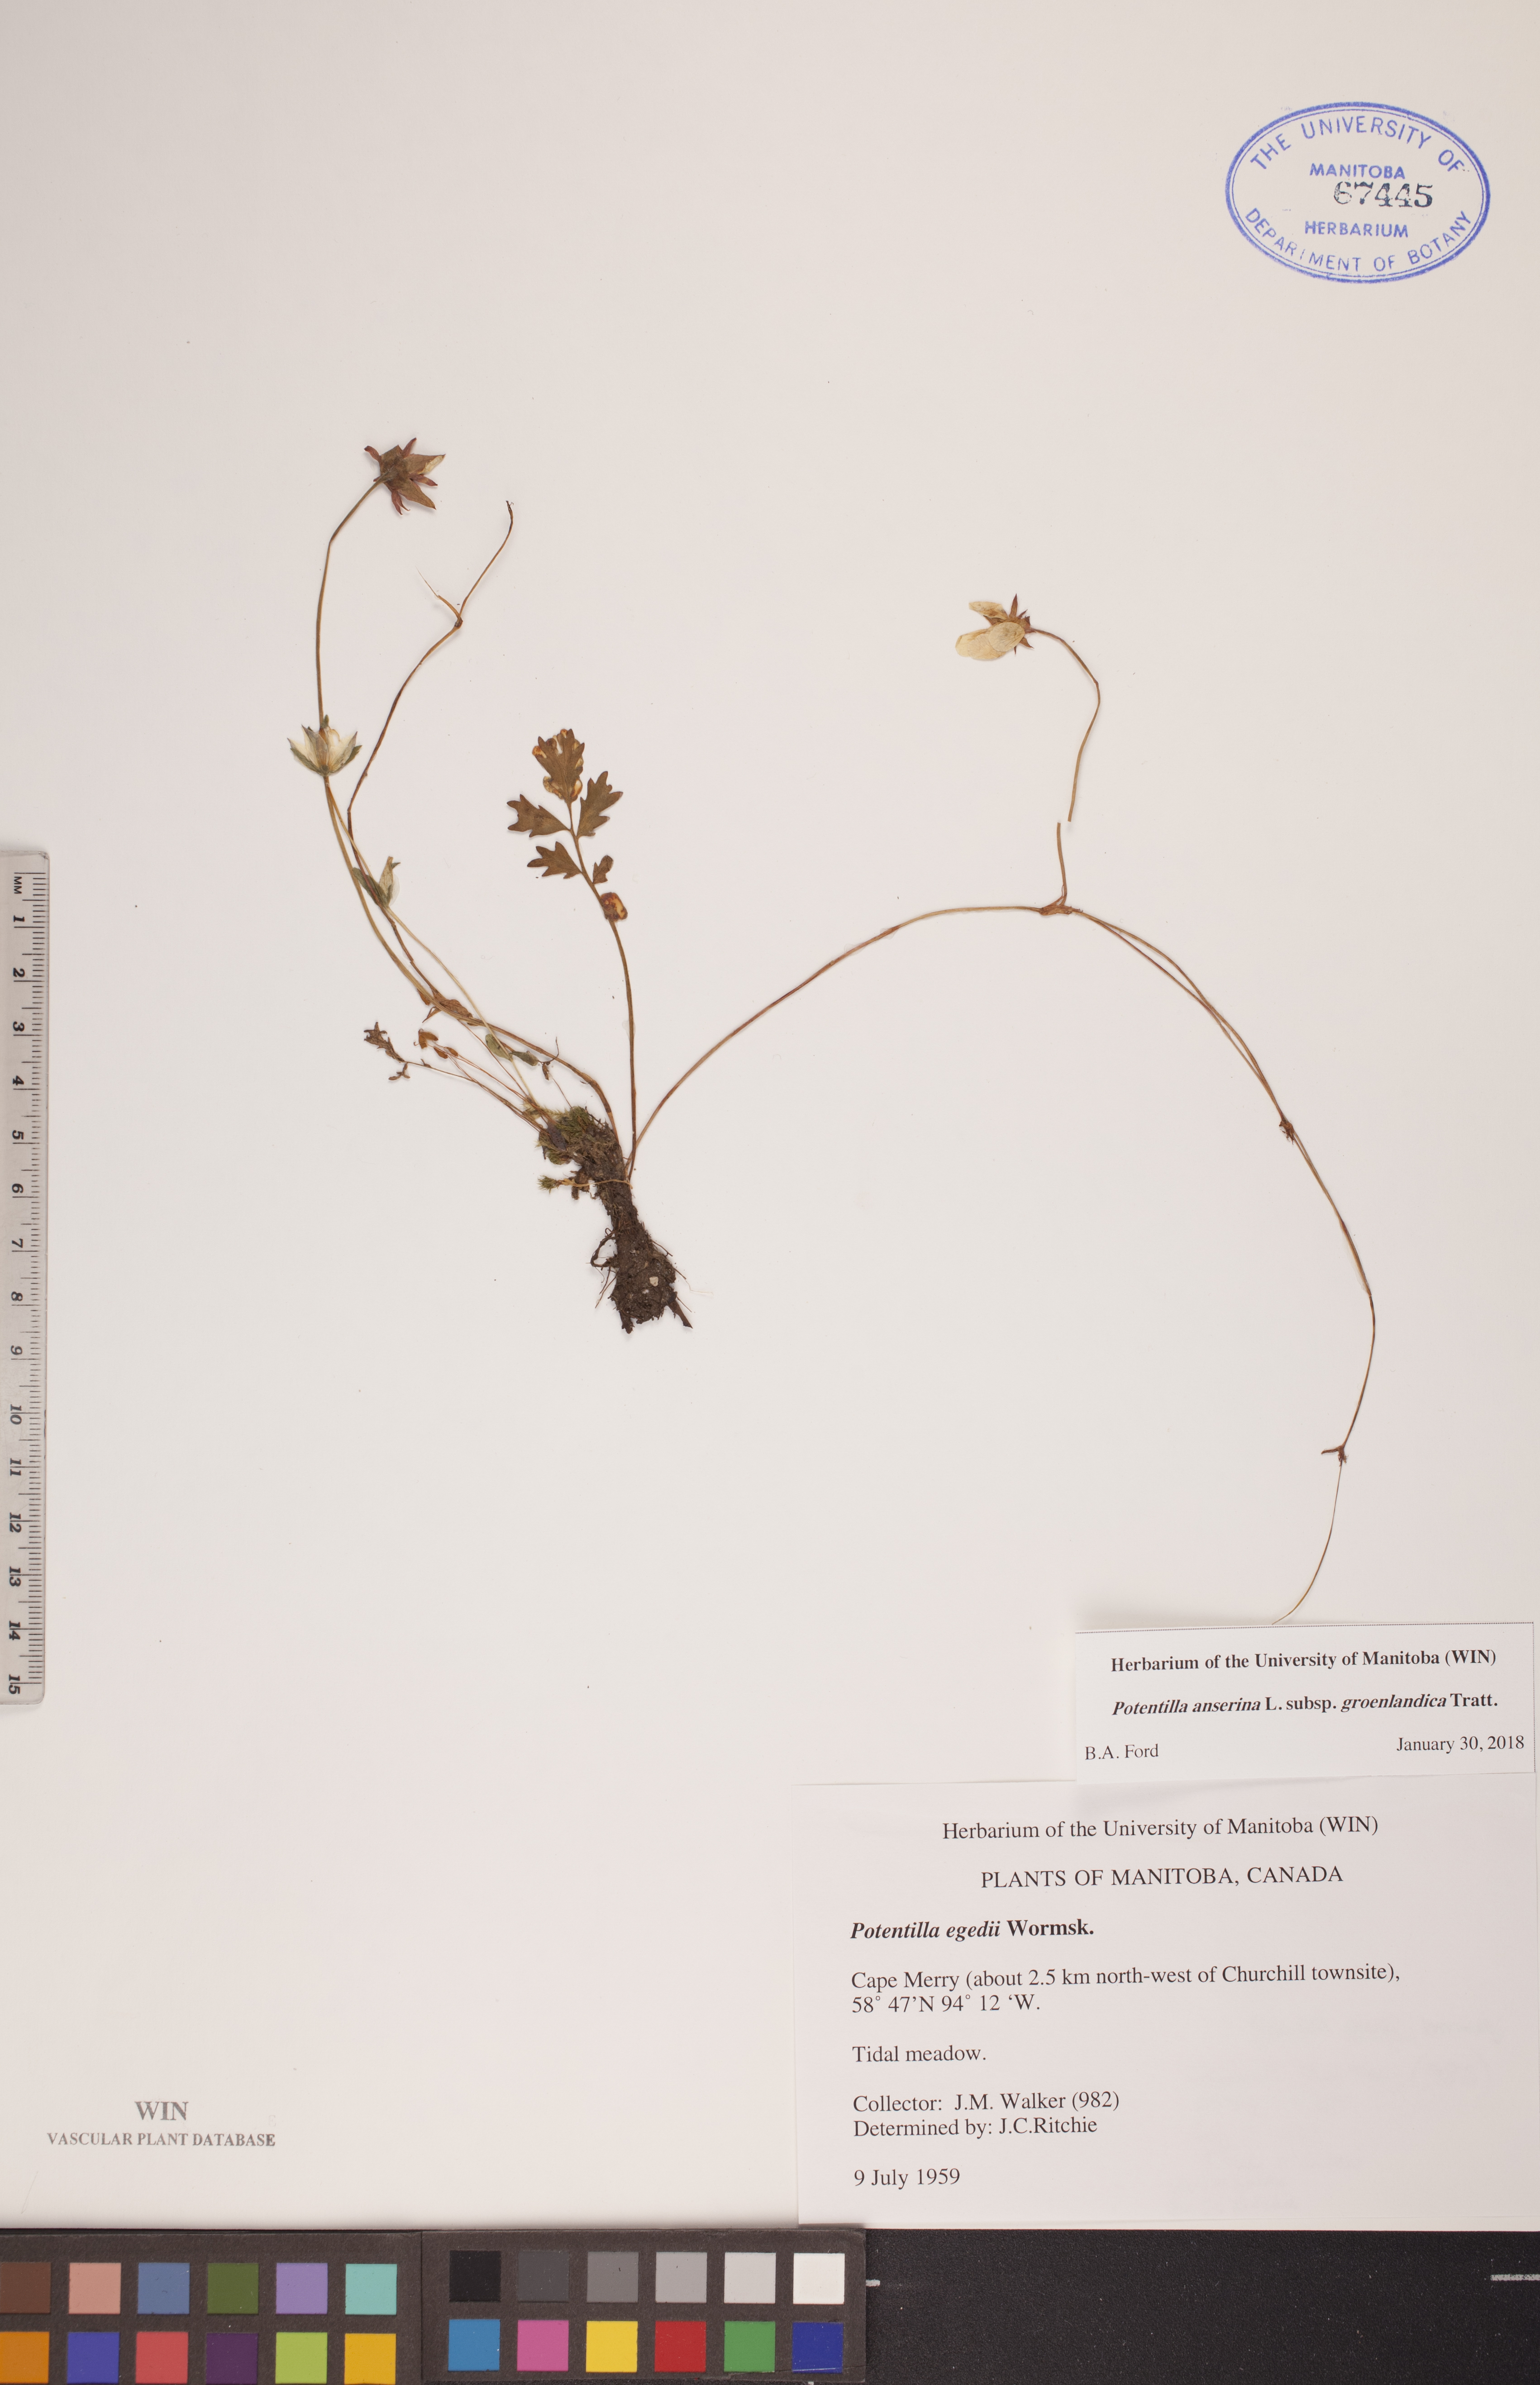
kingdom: Plantae
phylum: Tracheophyta
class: Magnoliopsida
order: Rosales
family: Rosaceae
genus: Argentina
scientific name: Argentina anserina
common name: Common silverweed
